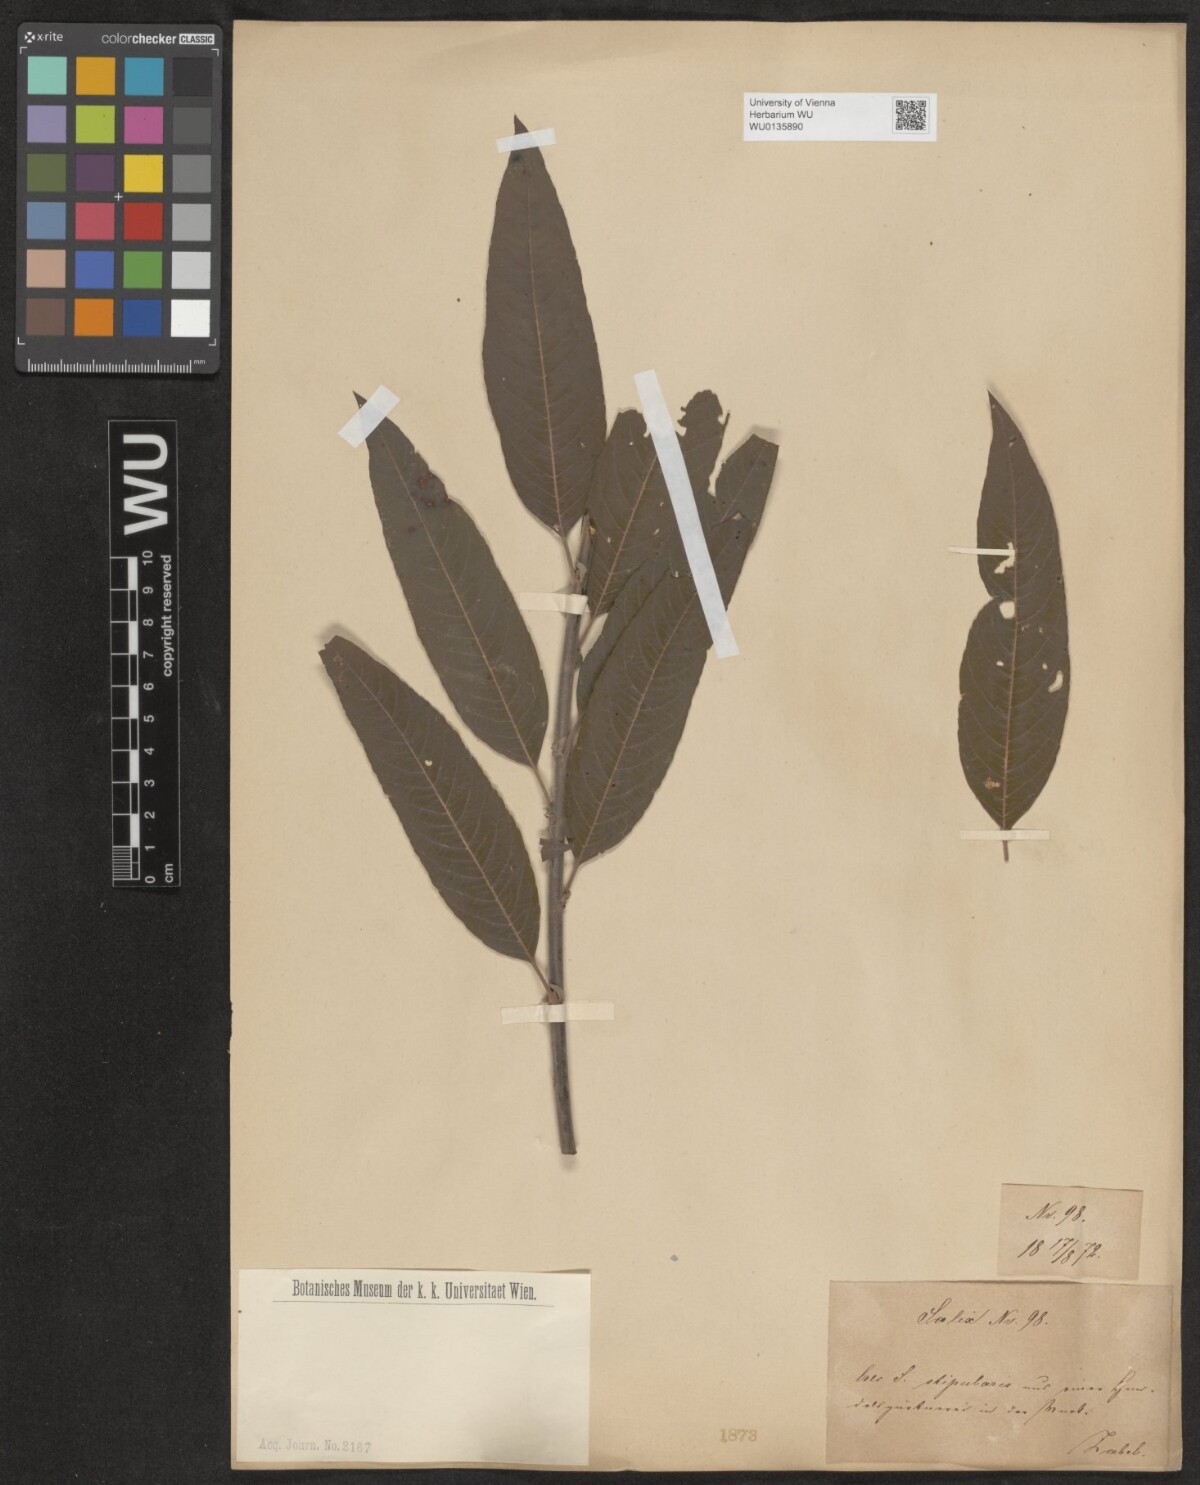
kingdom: Plantae
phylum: Tracheophyta
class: Magnoliopsida
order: Malpighiales
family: Salicaceae
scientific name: Salicaceae
